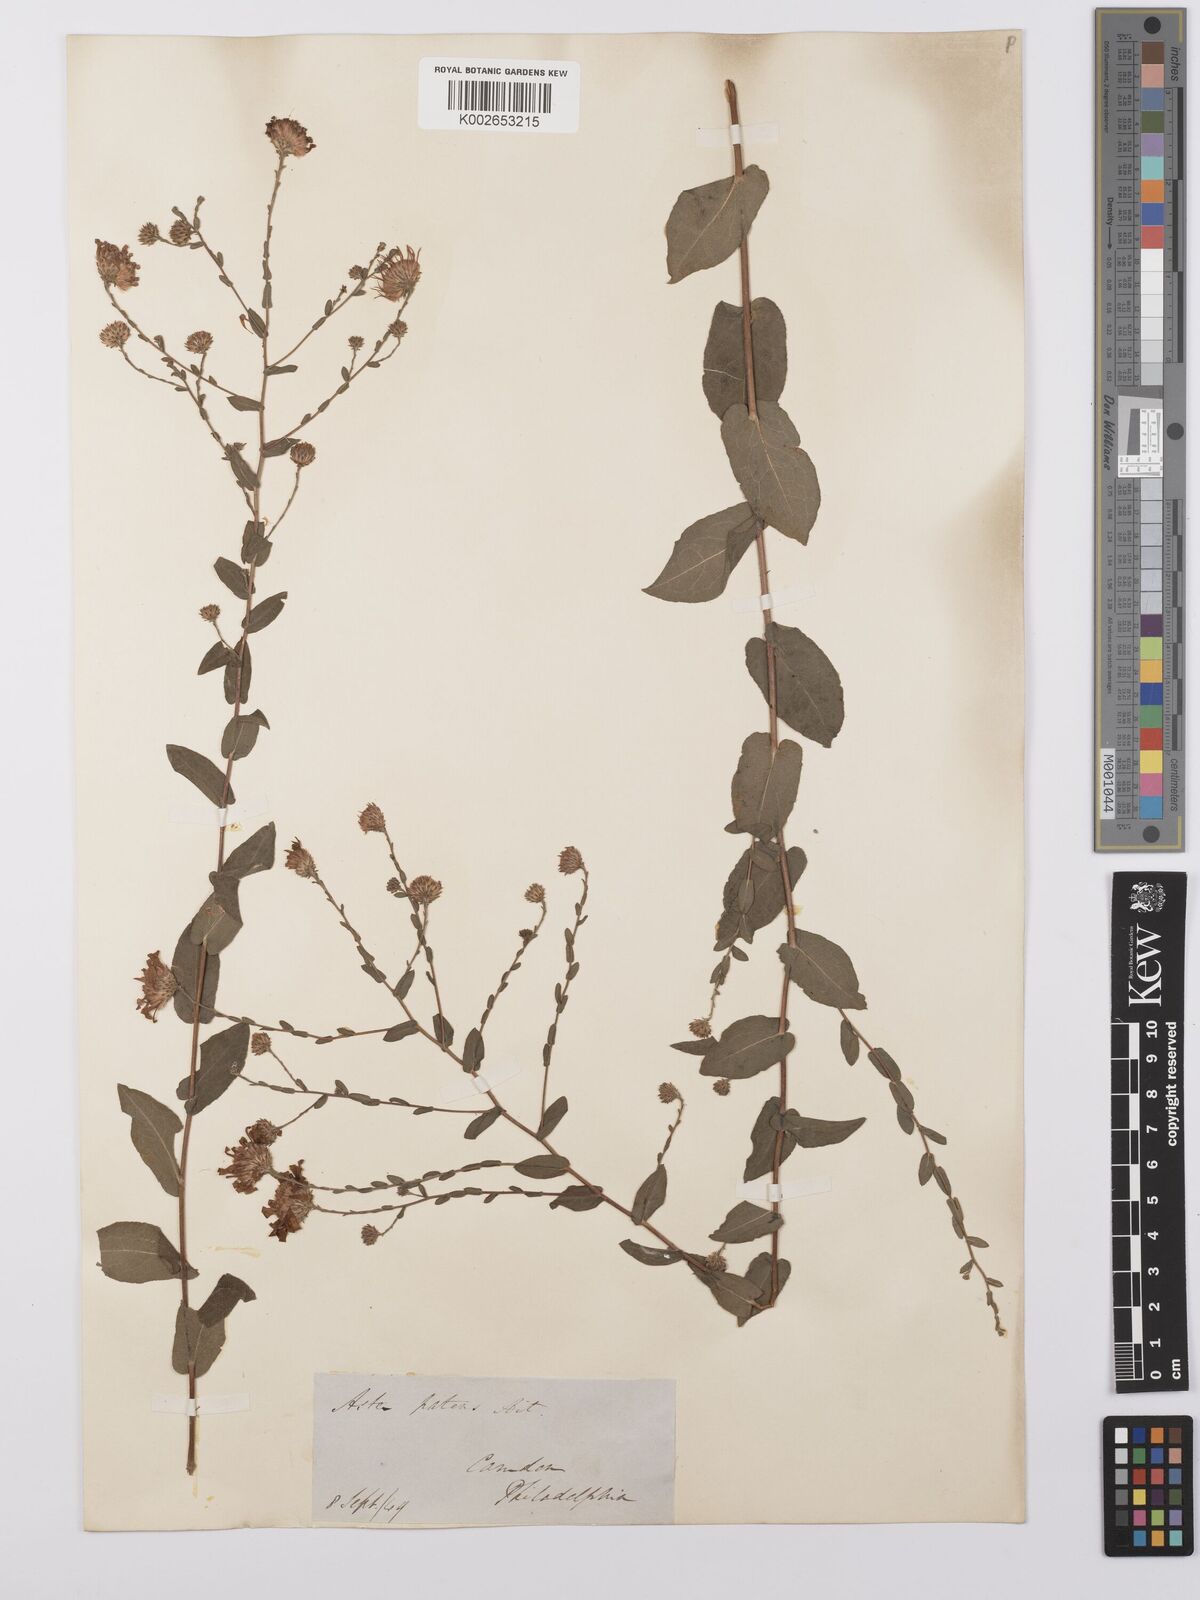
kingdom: Plantae
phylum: Tracheophyta
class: Magnoliopsida
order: Asterales
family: Asteraceae
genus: Symphyotrichum
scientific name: Symphyotrichum patens
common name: Late purple aster
